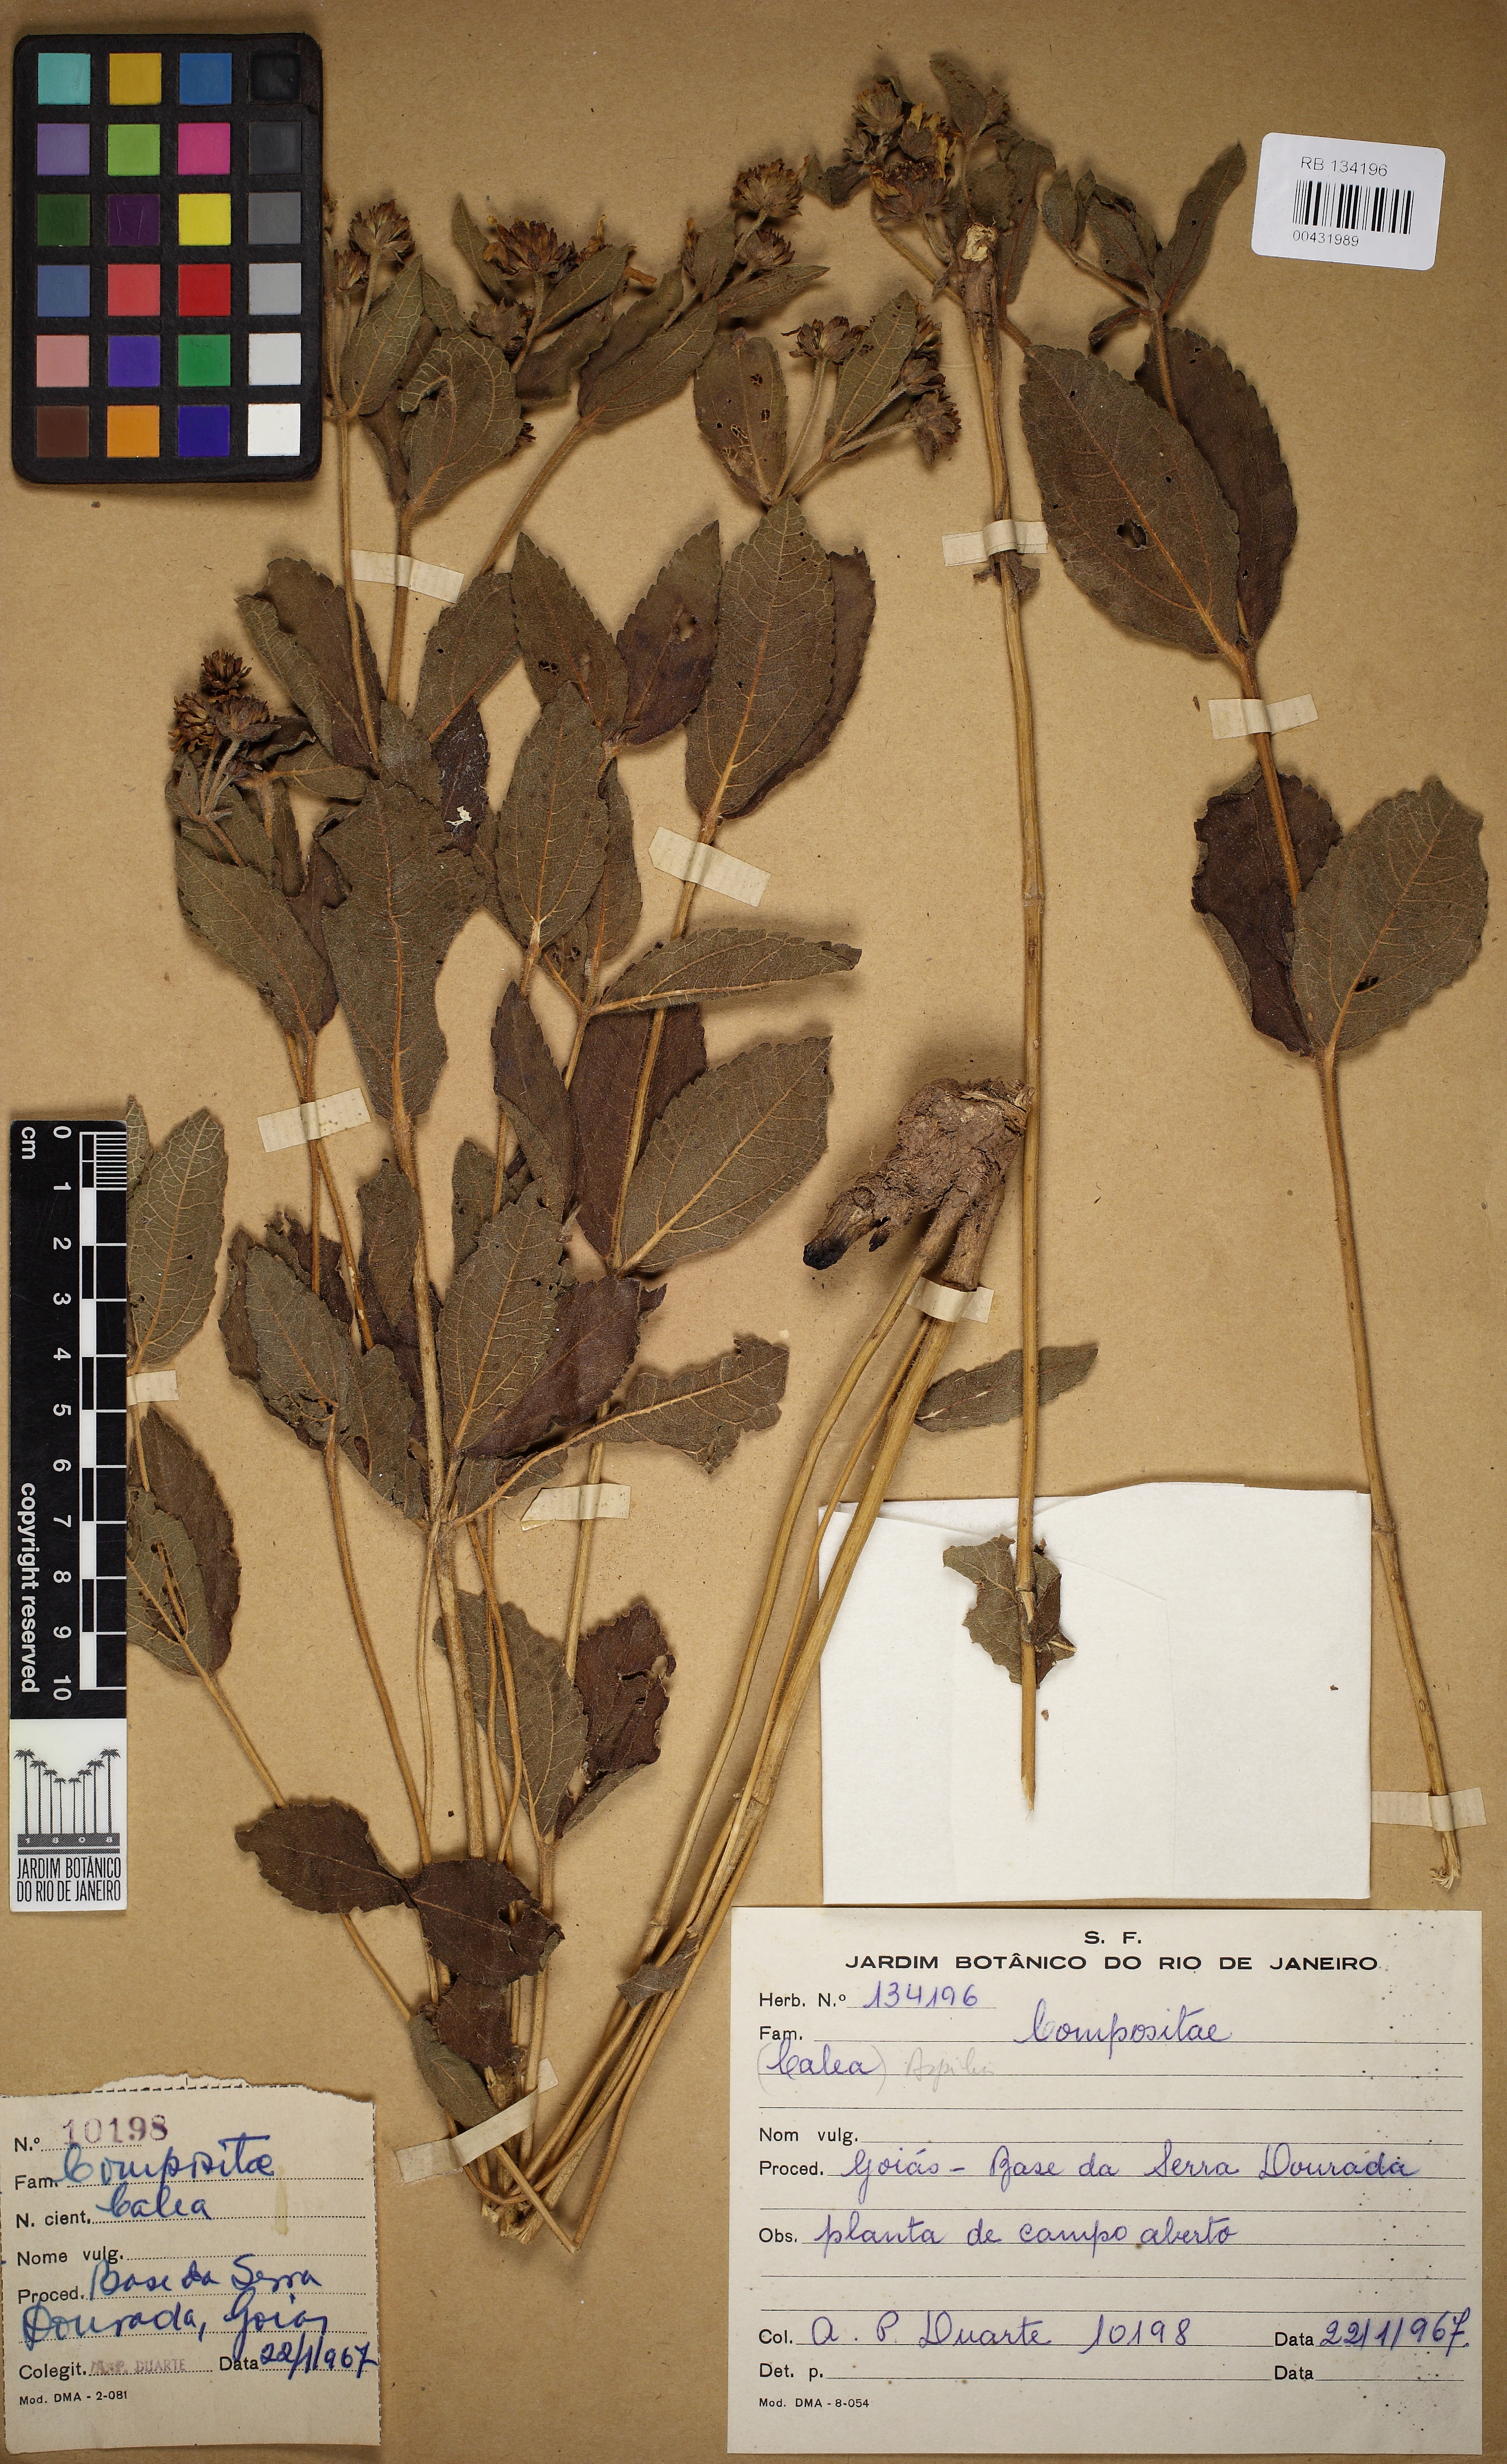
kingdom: Plantae
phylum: Tracheophyta
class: Magnoliopsida
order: Asterales
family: Asteraceae
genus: Wedelia
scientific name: Wedelia regis
